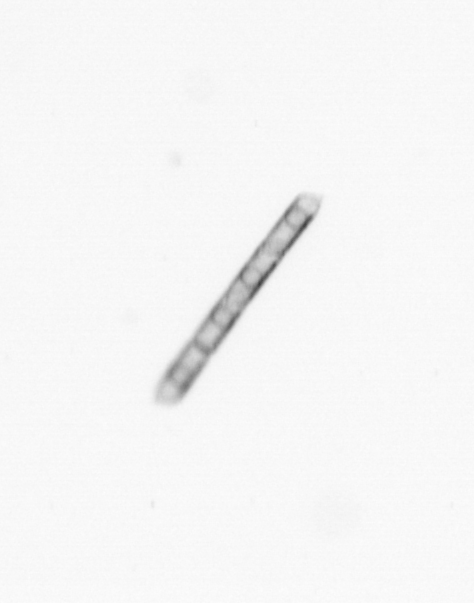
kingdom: Chromista
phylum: Ochrophyta
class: Bacillariophyceae
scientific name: Bacillariophyceae
